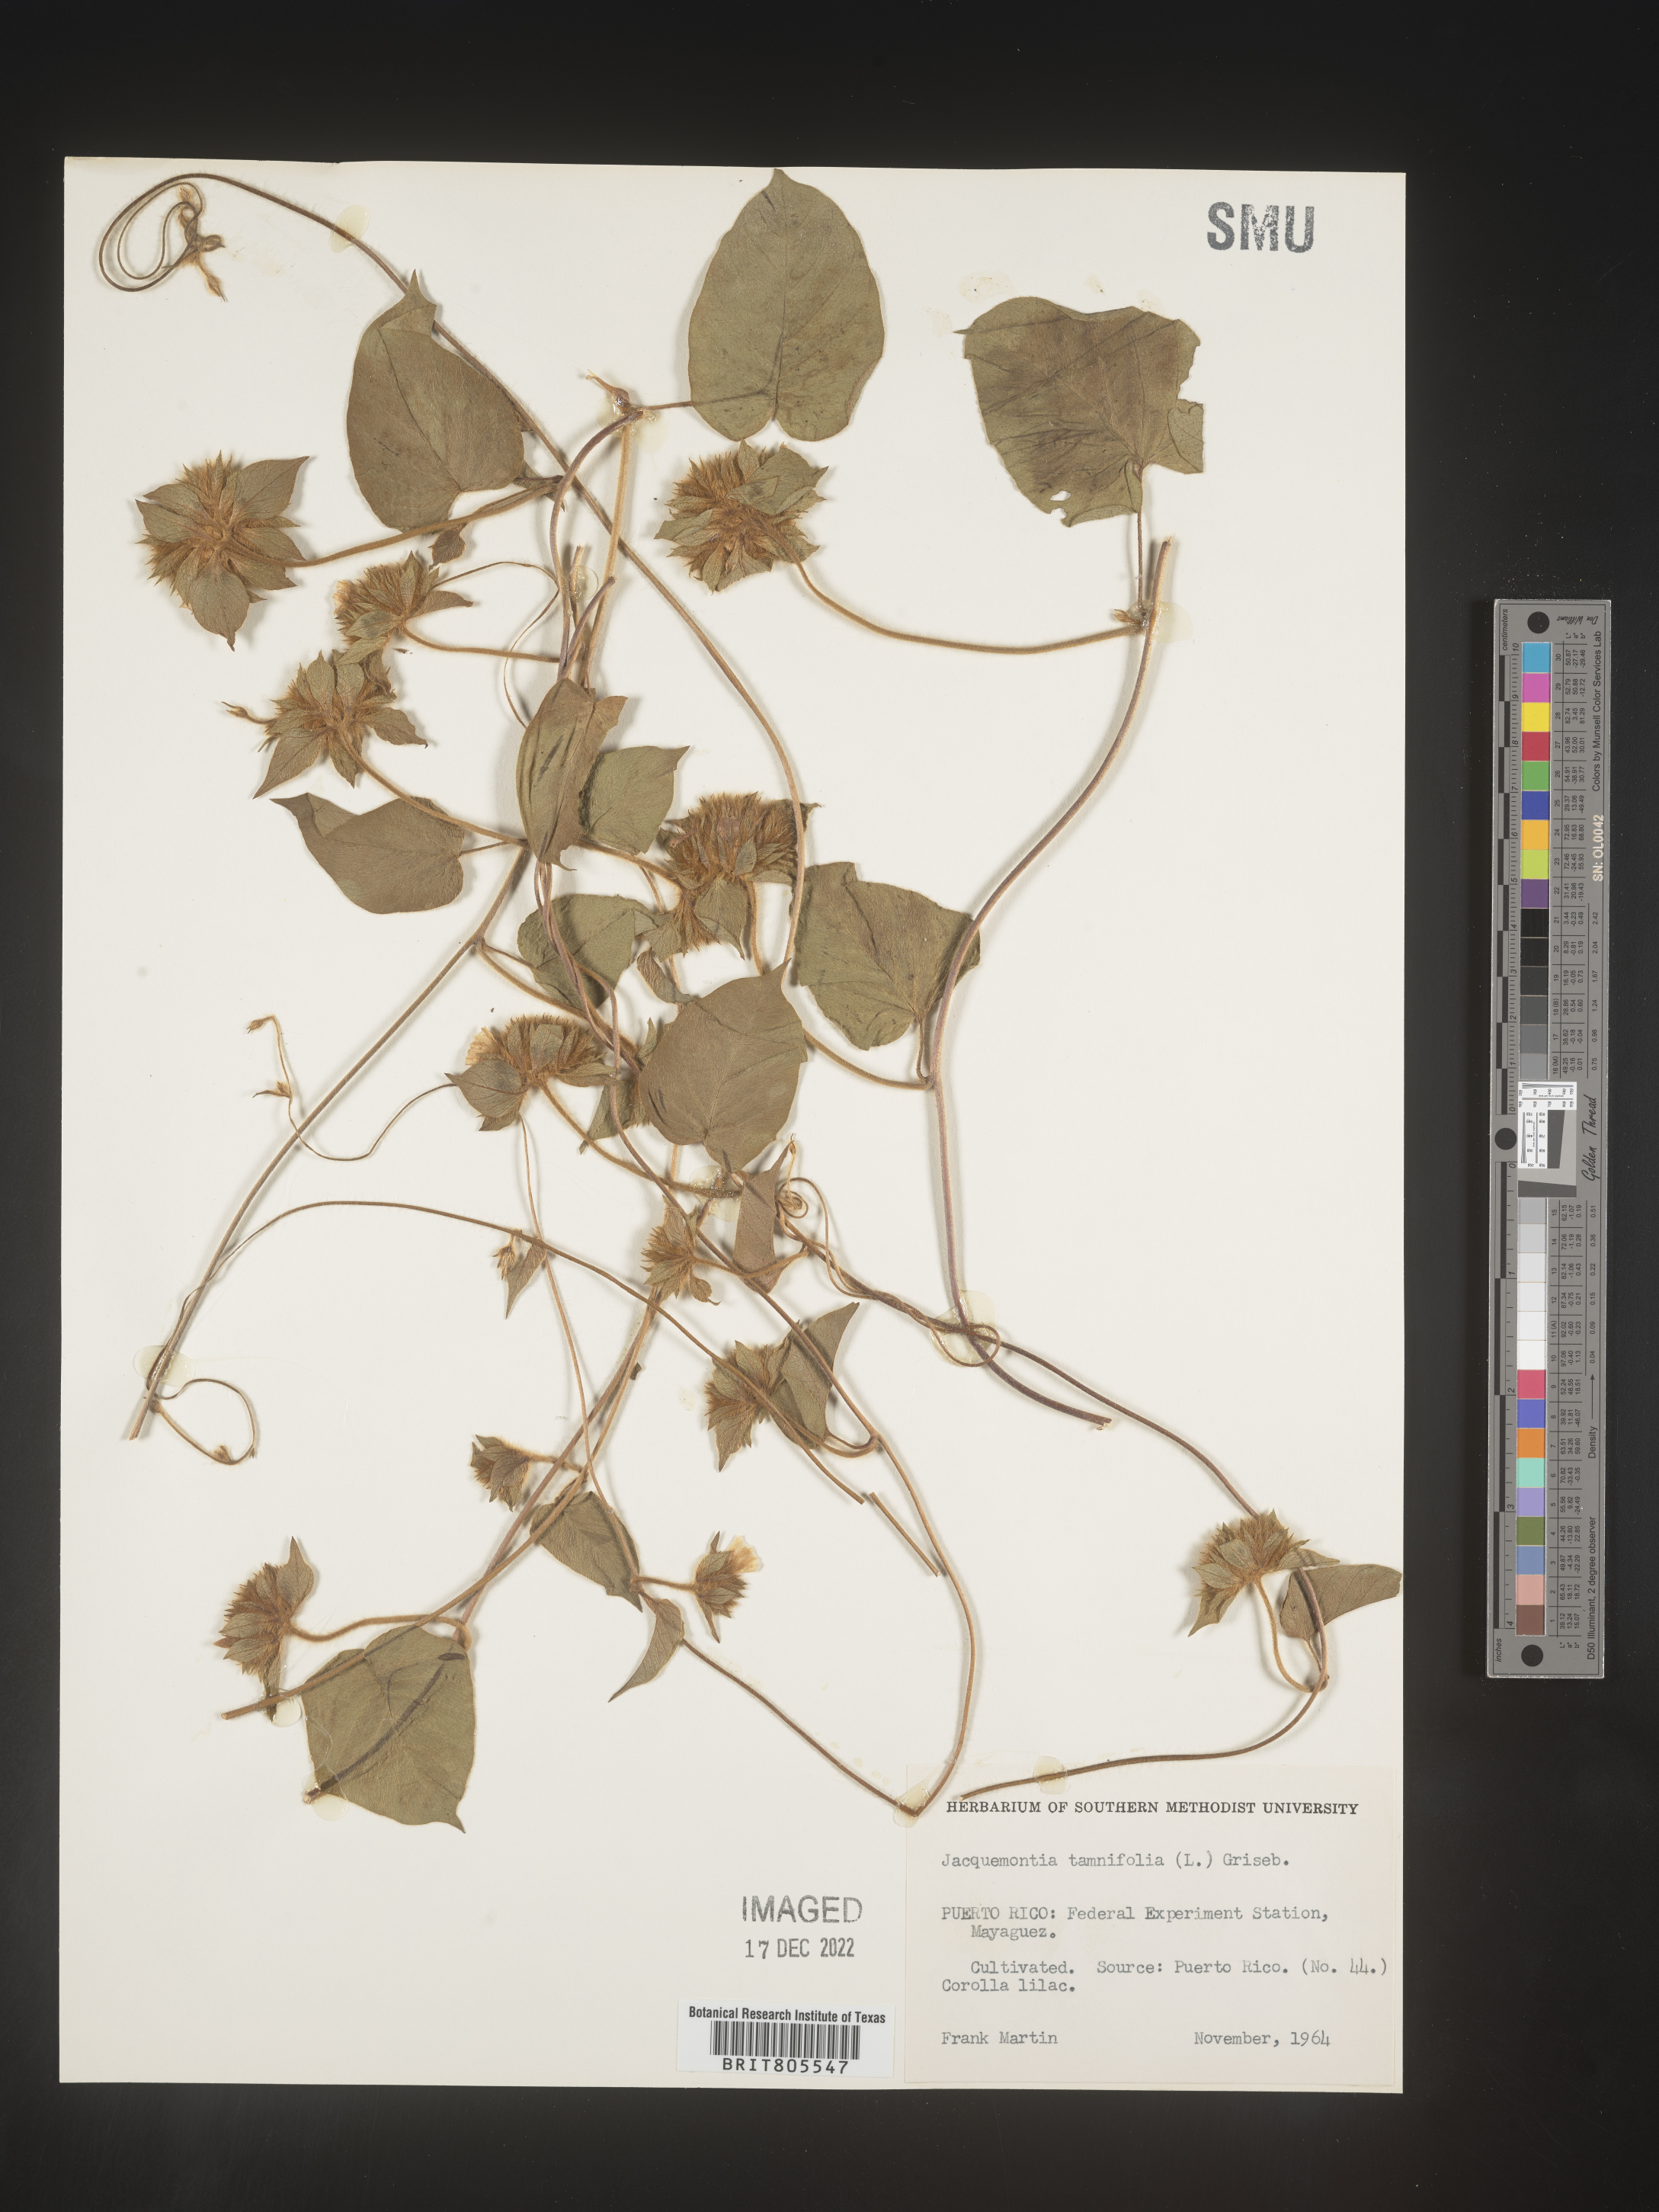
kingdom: Plantae
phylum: Tracheophyta
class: Magnoliopsida
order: Solanales
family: Convolvulaceae
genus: Jacquemontia
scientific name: Jacquemontia
